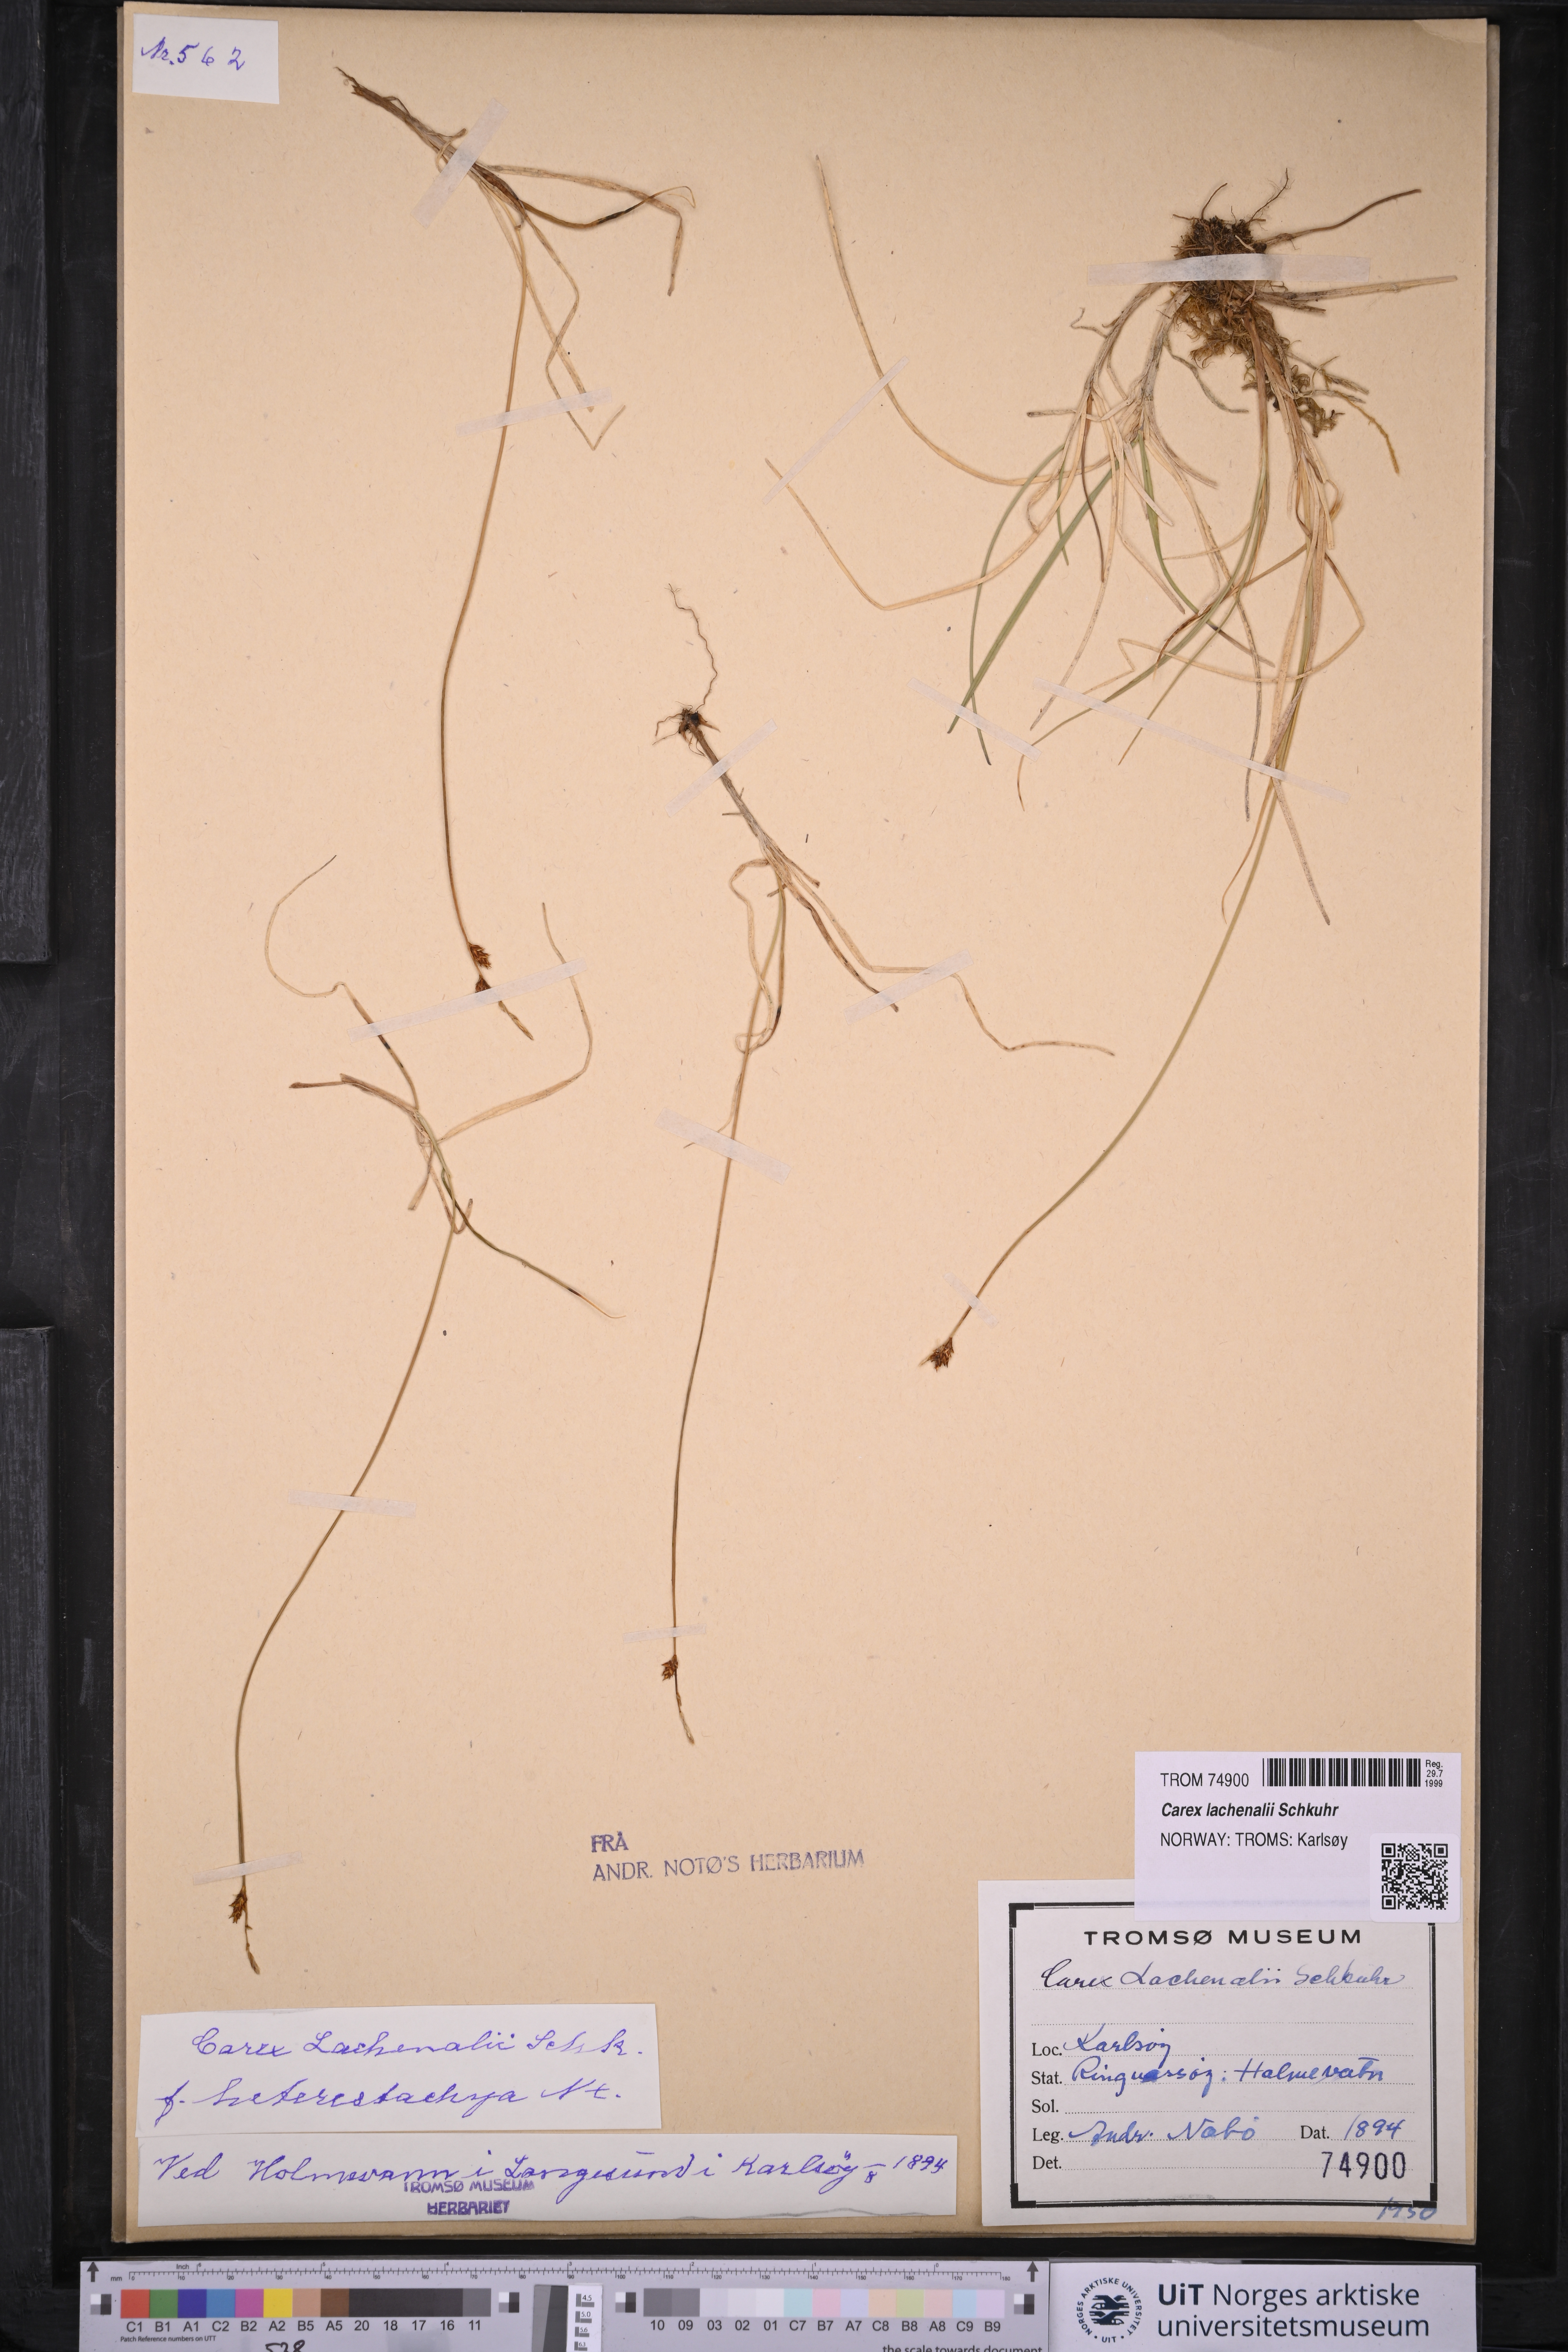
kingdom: Plantae
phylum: Tracheophyta
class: Liliopsida
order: Poales
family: Cyperaceae
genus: Carex
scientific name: Carex lachenalii
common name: Hare's-foot sedge
